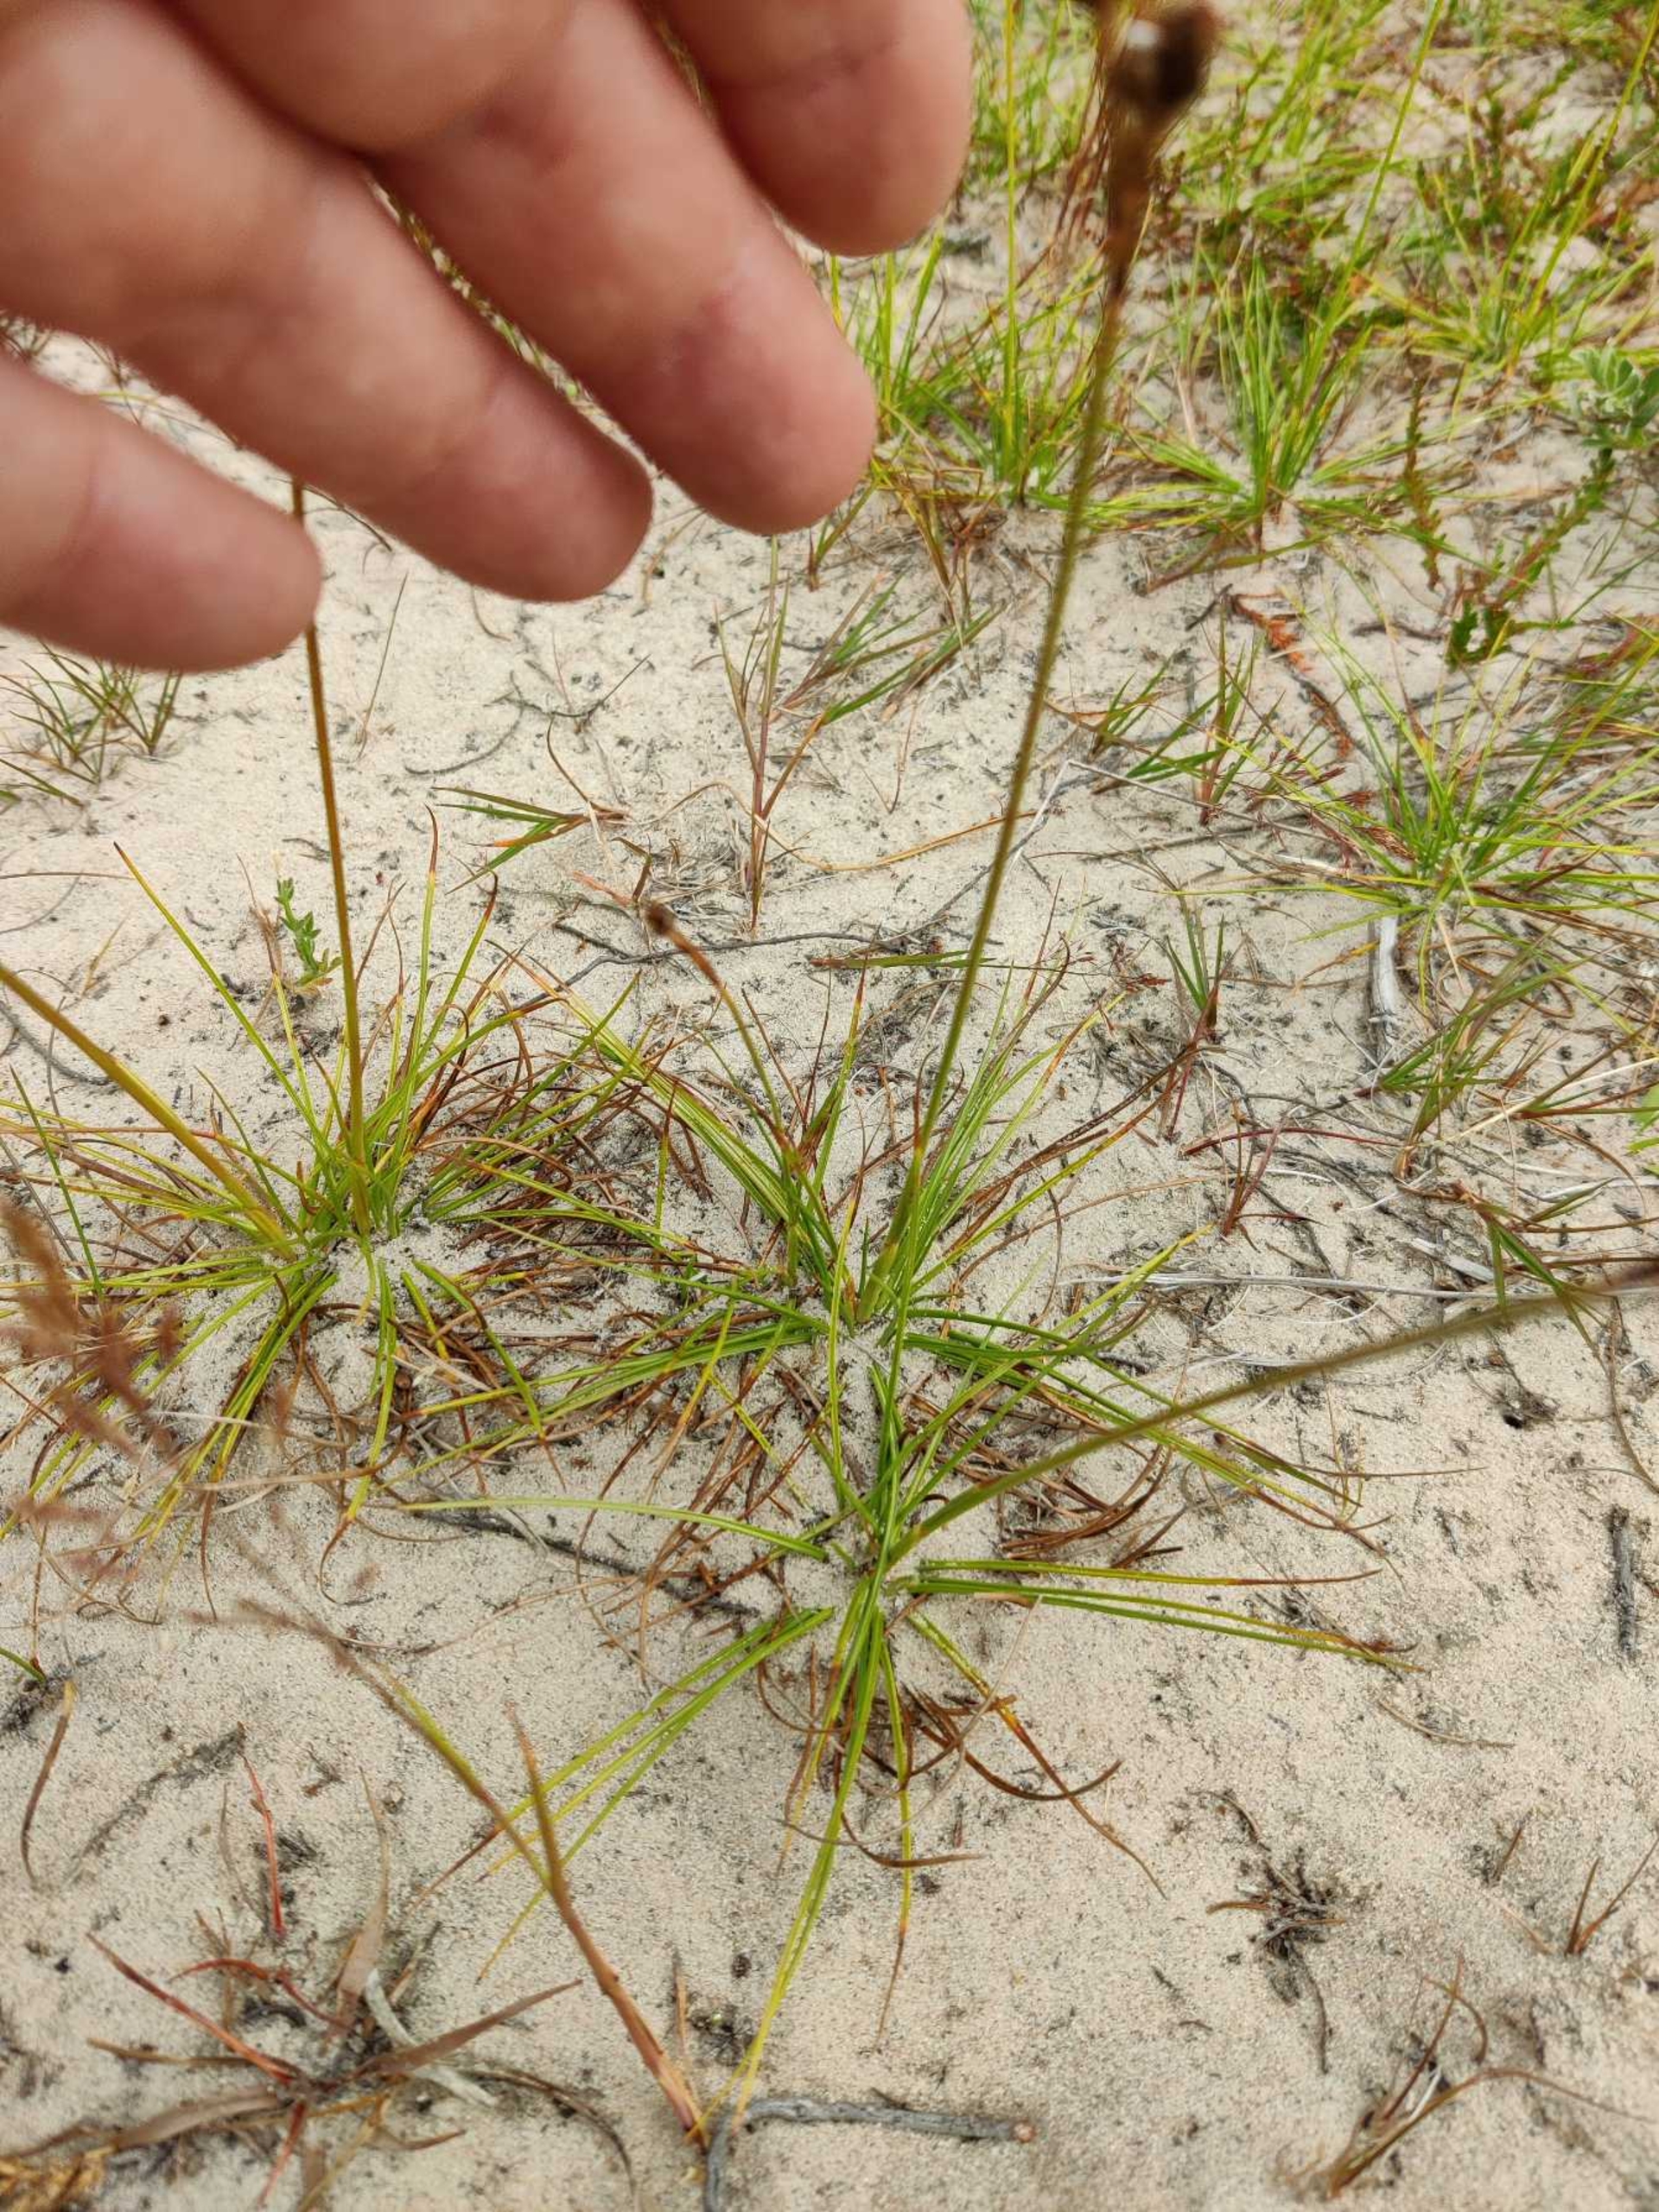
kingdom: Plantae
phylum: Tracheophyta
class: Liliopsida
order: Poales
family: Juncaceae
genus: Juncus
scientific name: Juncus squarrosus
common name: Børste-siv
